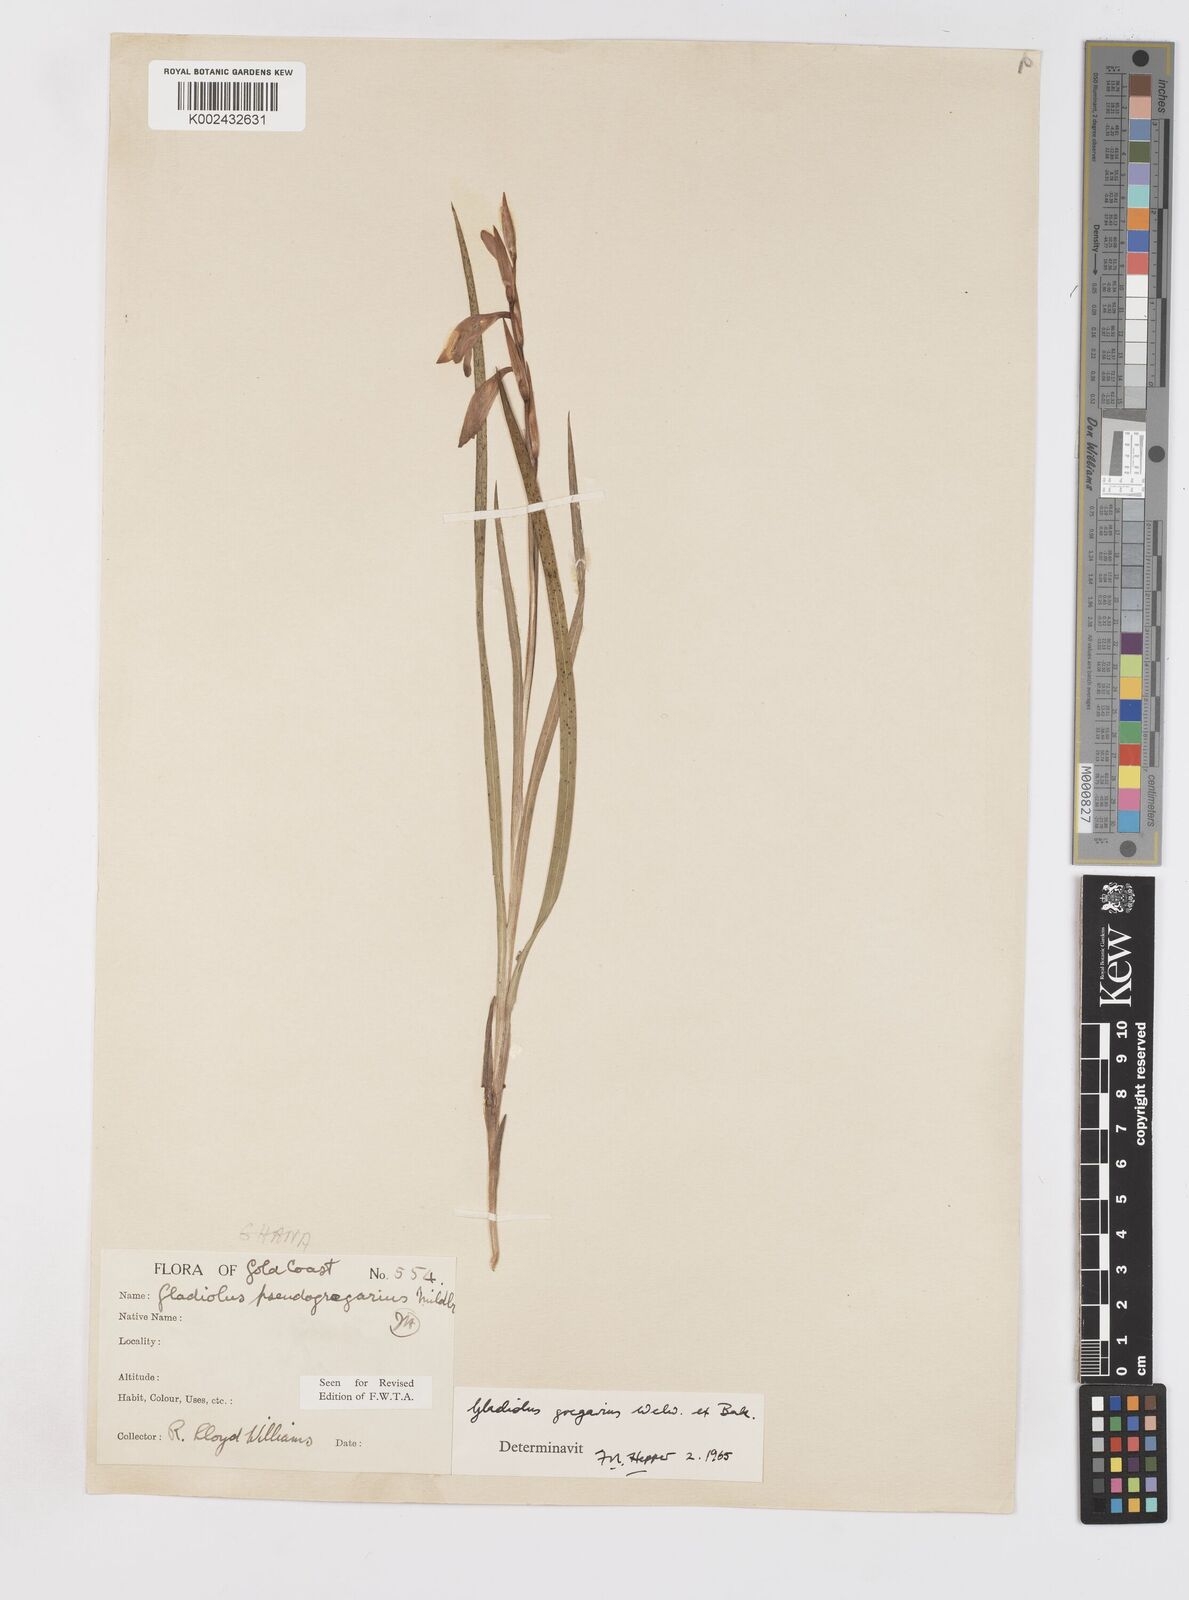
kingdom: Plantae
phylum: Tracheophyta
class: Liliopsida
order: Asparagales
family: Iridaceae
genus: Gladiolus
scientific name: Gladiolus gregarius
